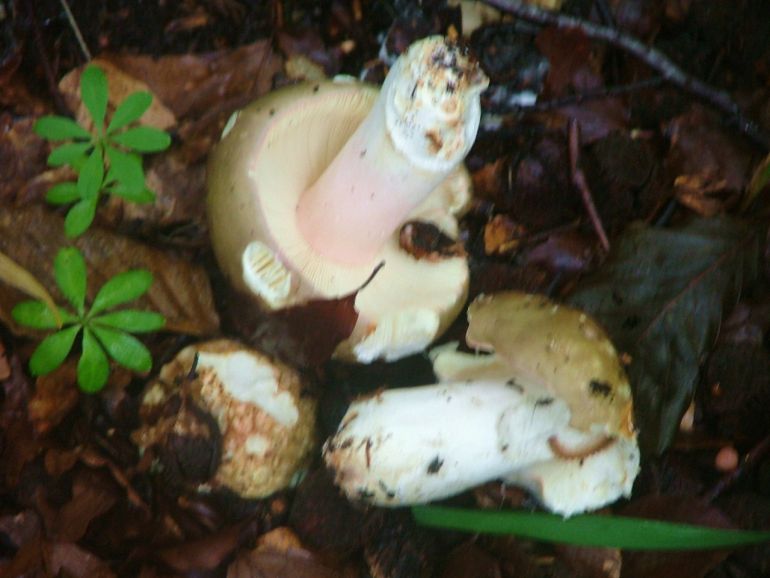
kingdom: Fungi
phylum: Basidiomycota
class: Agaricomycetes
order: Russulales
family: Russulaceae
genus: Russula
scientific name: Russula olivacea
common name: stor skørhat
